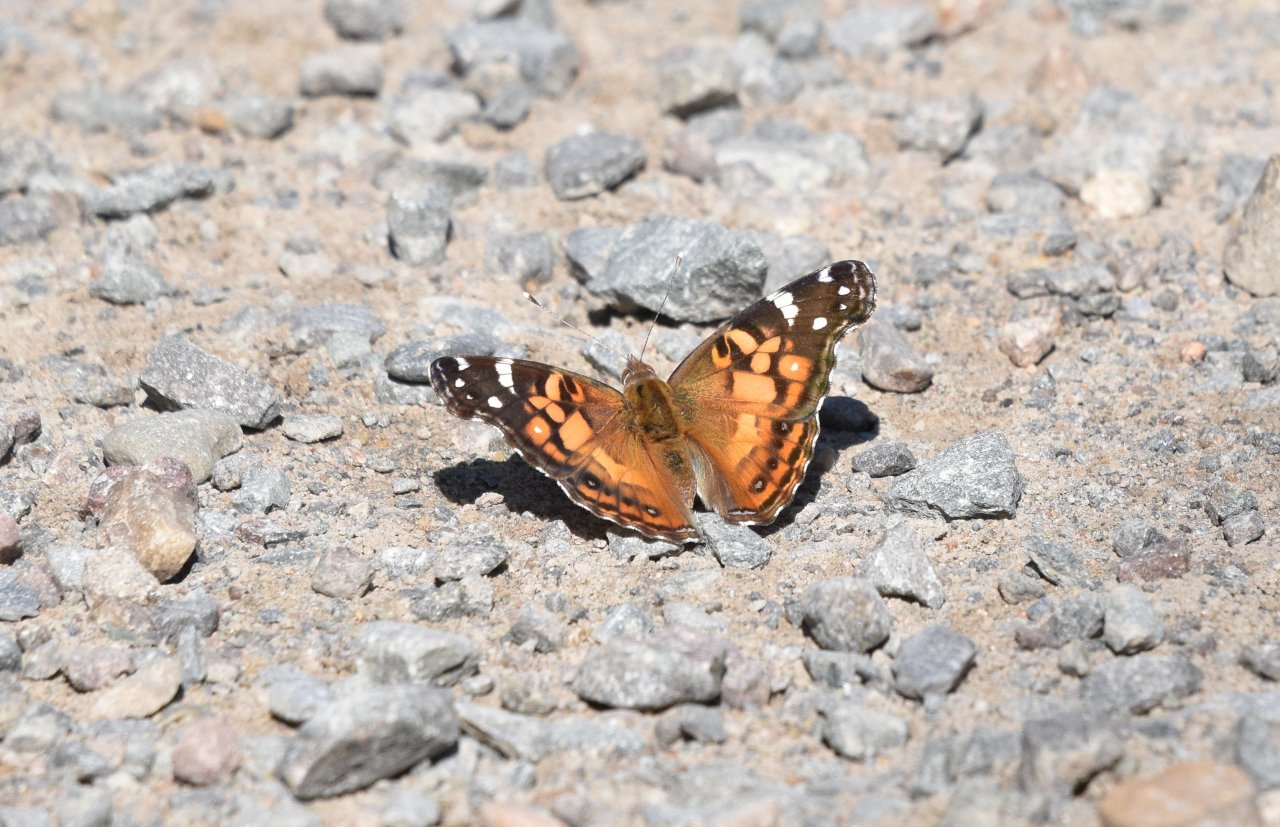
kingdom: Animalia
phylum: Arthropoda
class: Insecta
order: Lepidoptera
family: Nymphalidae
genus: Vanessa
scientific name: Vanessa virginiensis
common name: American Lady
